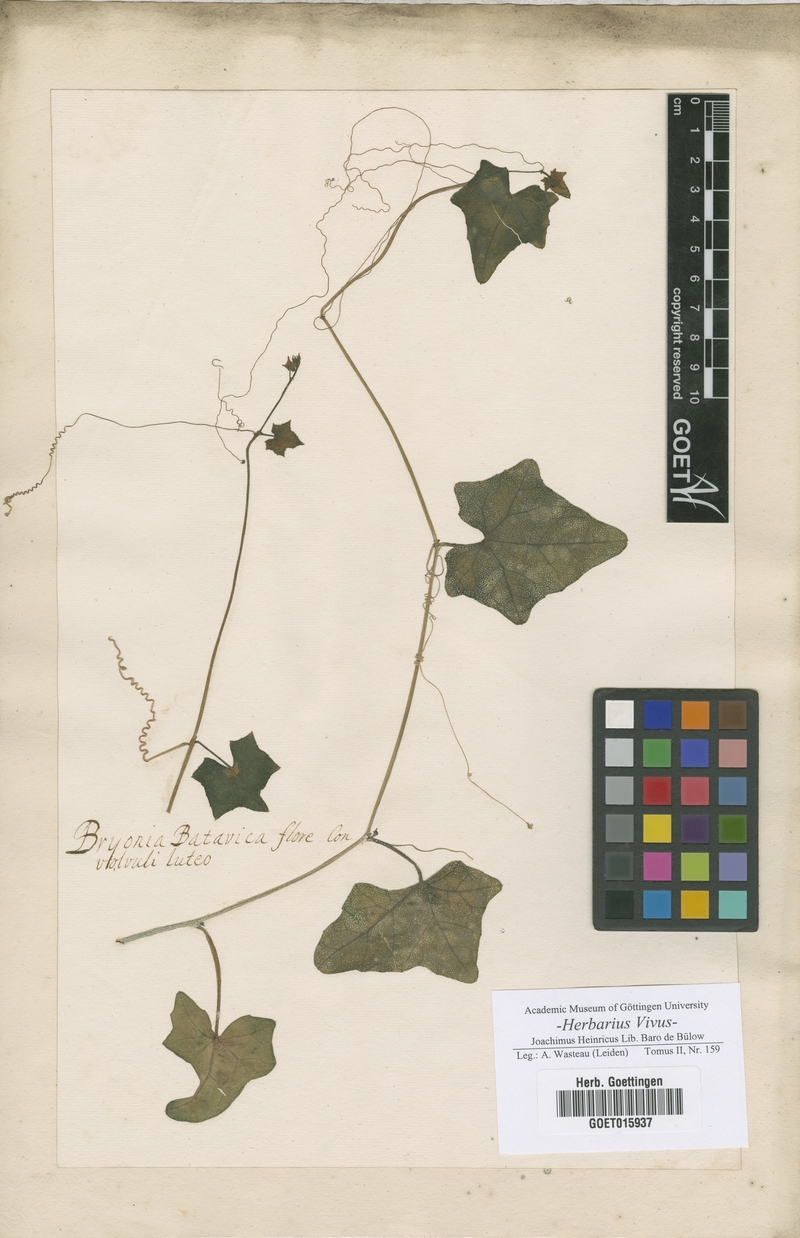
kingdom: Plantae
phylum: Tracheophyta
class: Magnoliopsida
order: Cucurbitales
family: Cucurbitaceae
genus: Bryonia
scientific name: Bryonia
